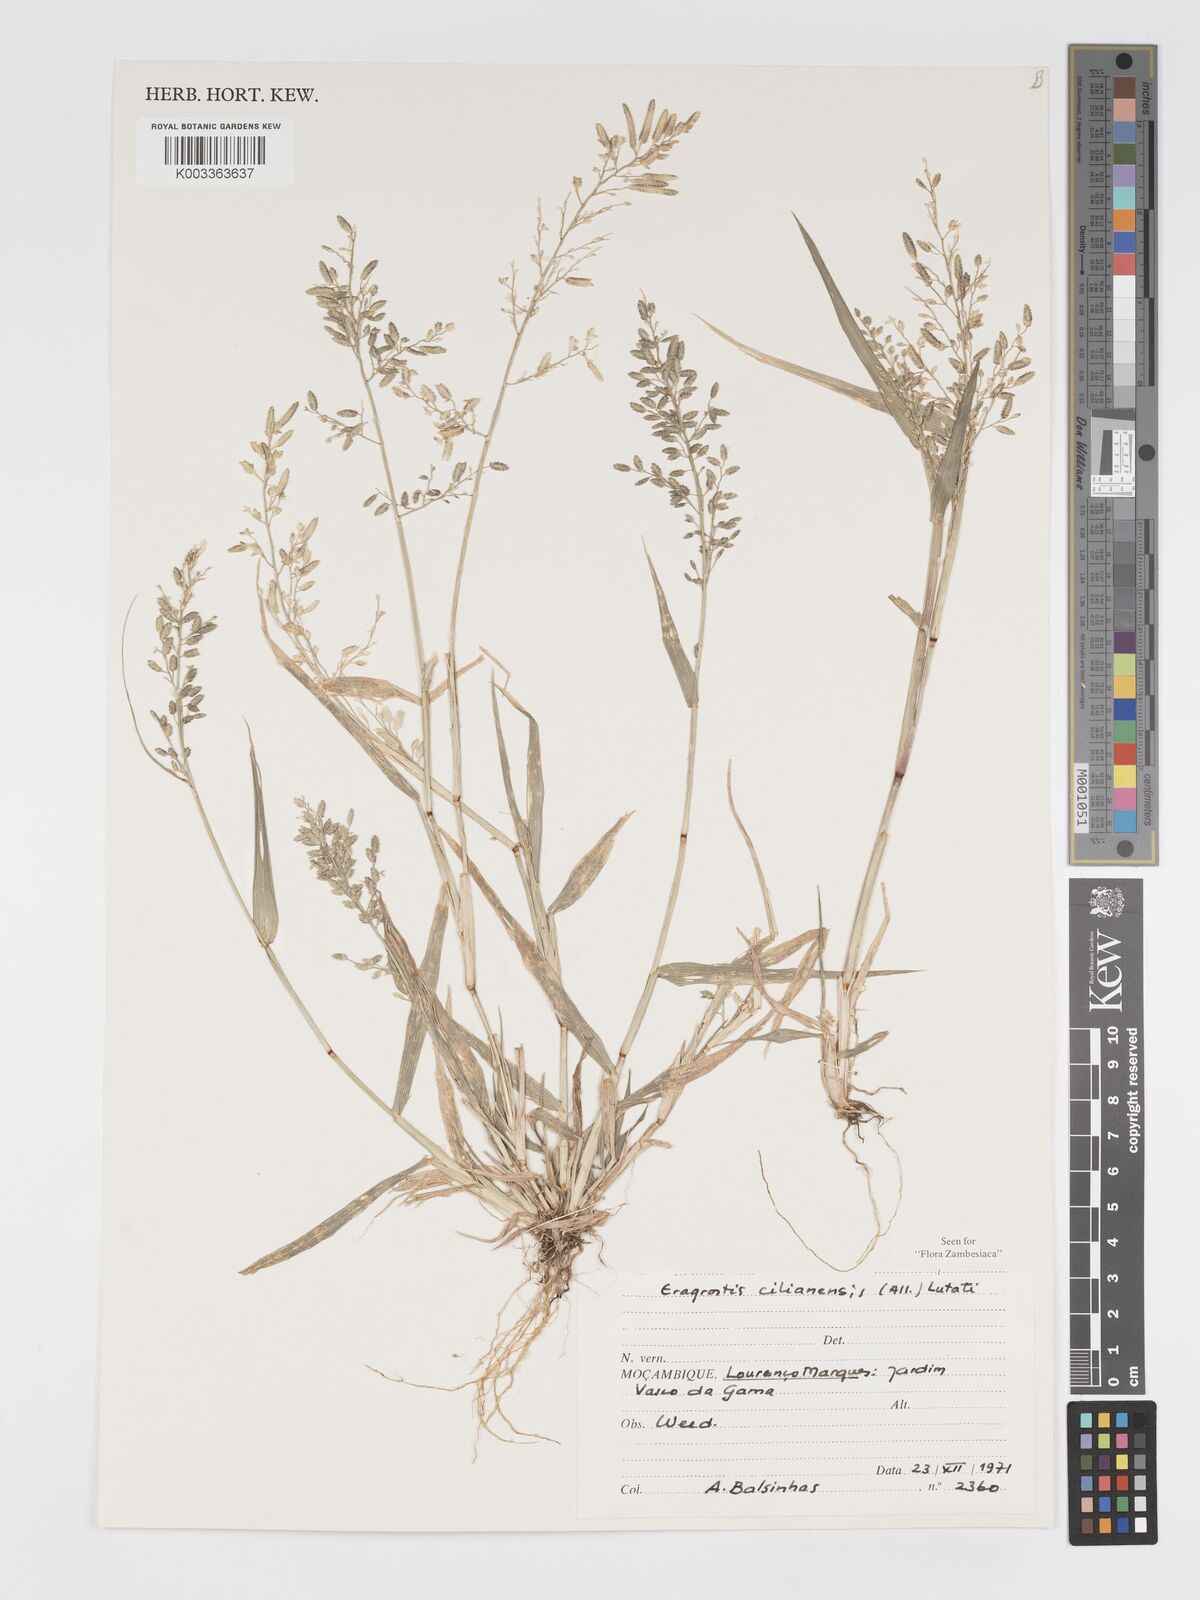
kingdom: Plantae
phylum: Tracheophyta
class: Liliopsida
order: Poales
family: Poaceae
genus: Eragrostis
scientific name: Eragrostis cilianensis
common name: Stinkgrass
